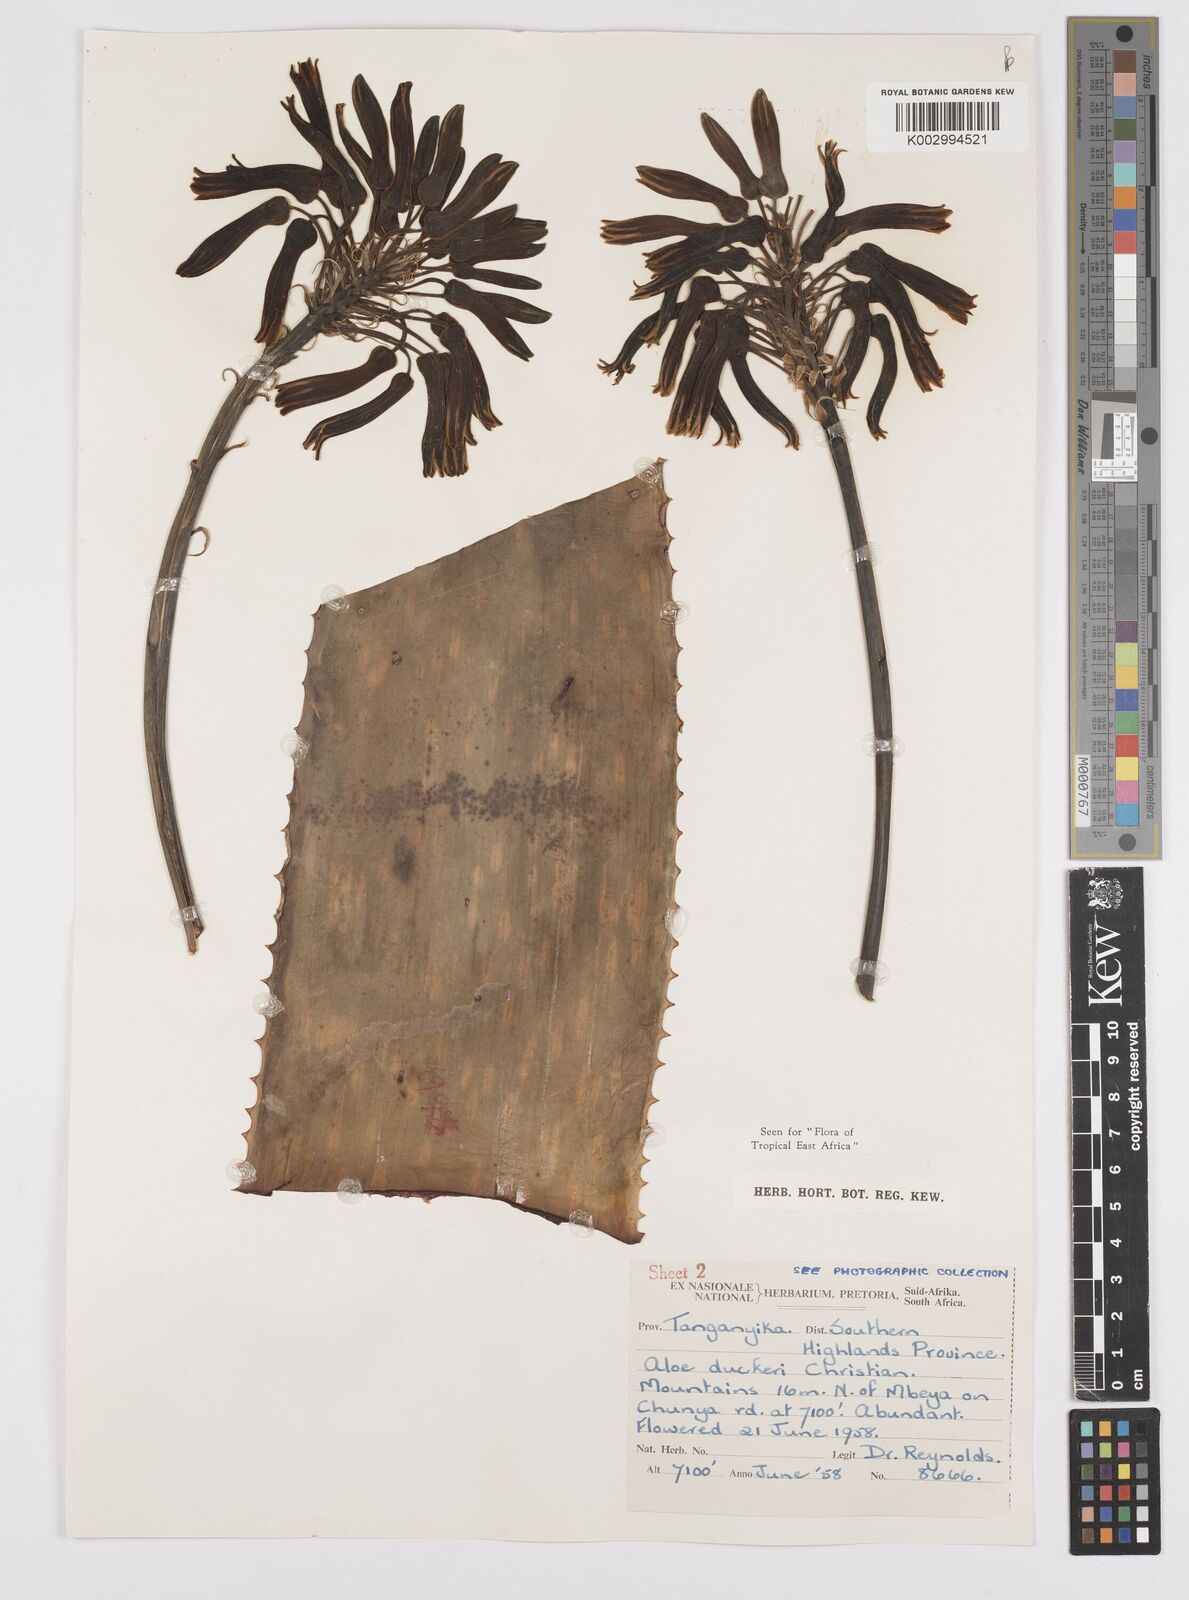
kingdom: Plantae
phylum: Tracheophyta
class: Liliopsida
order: Asparagales
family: Asphodelaceae
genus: Aloe
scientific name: Aloe duckeri
